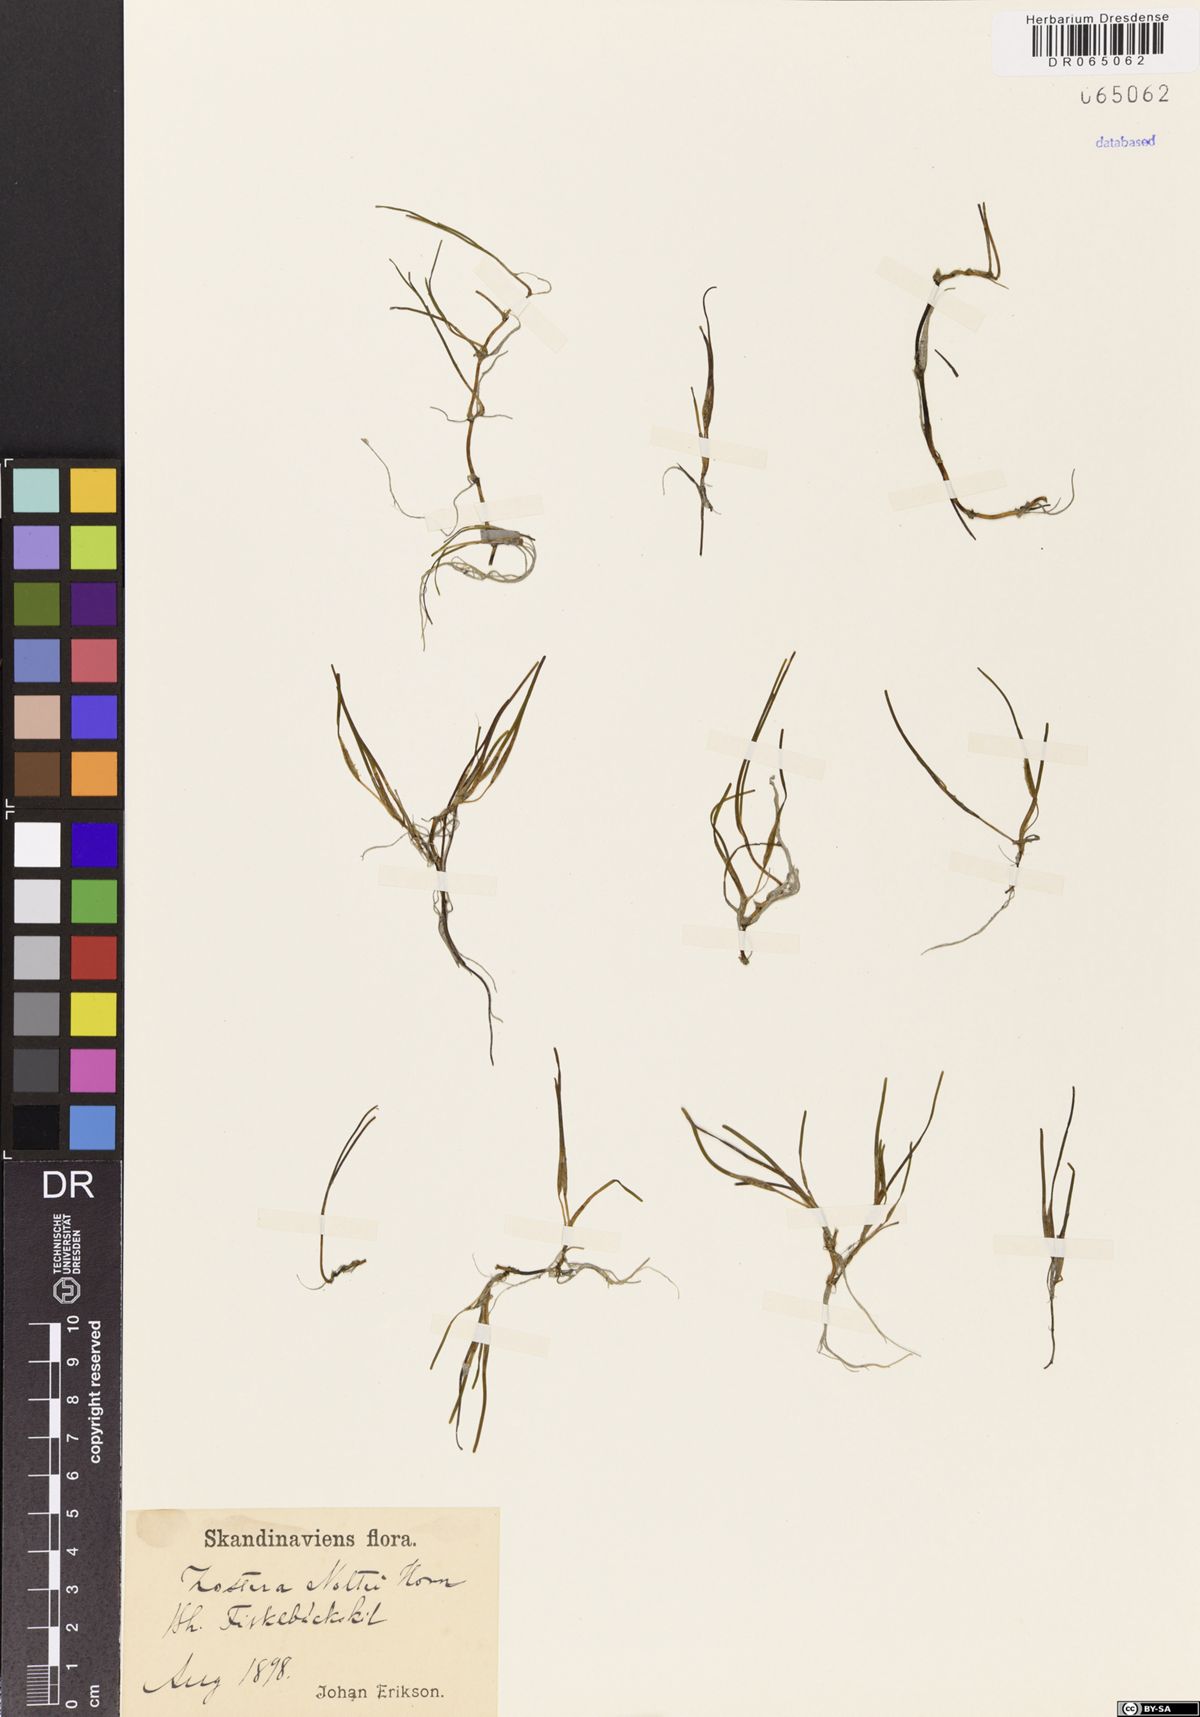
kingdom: Plantae
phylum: Tracheophyta
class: Liliopsida
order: Alismatales
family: Zosteraceae
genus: Zostera
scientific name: Zostera noltii
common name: Dwarf eelgrass
